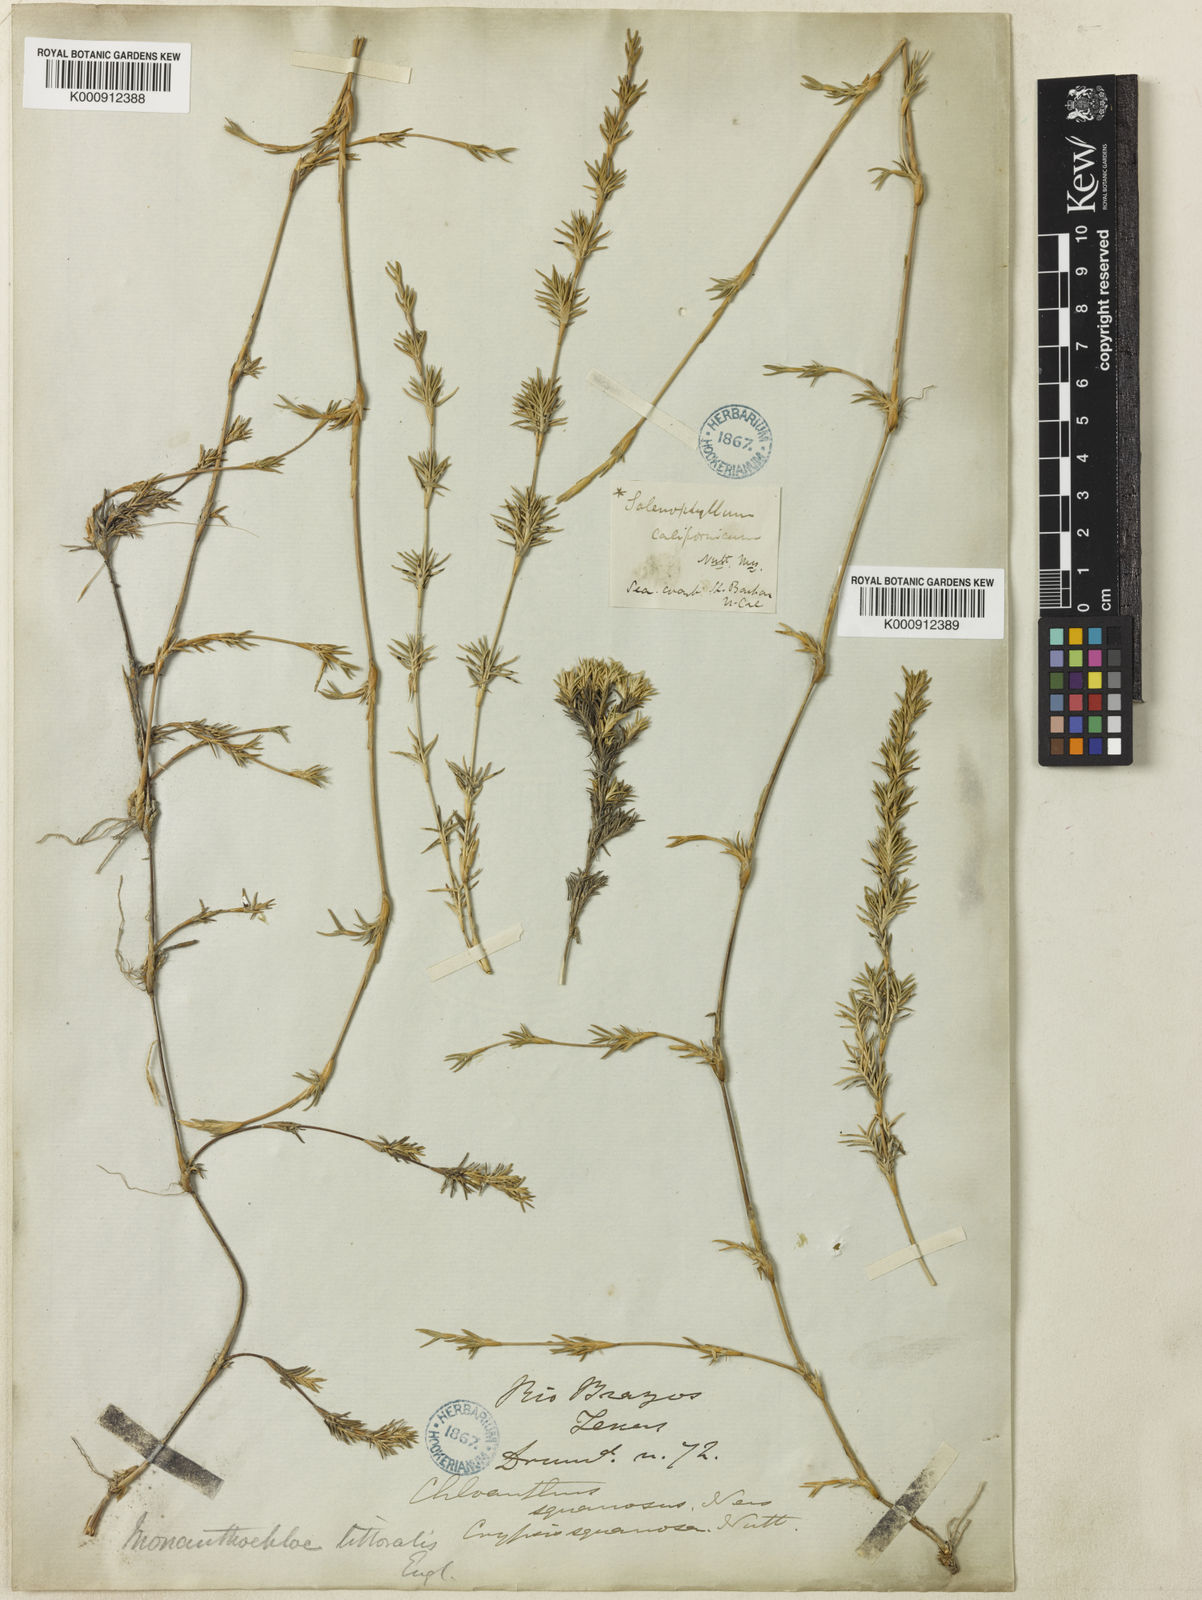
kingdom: Plantae
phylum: Tracheophyta
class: Liliopsida
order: Poales
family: Poaceae
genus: Distichlis
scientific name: Distichlis littoralis
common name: Shore grass
